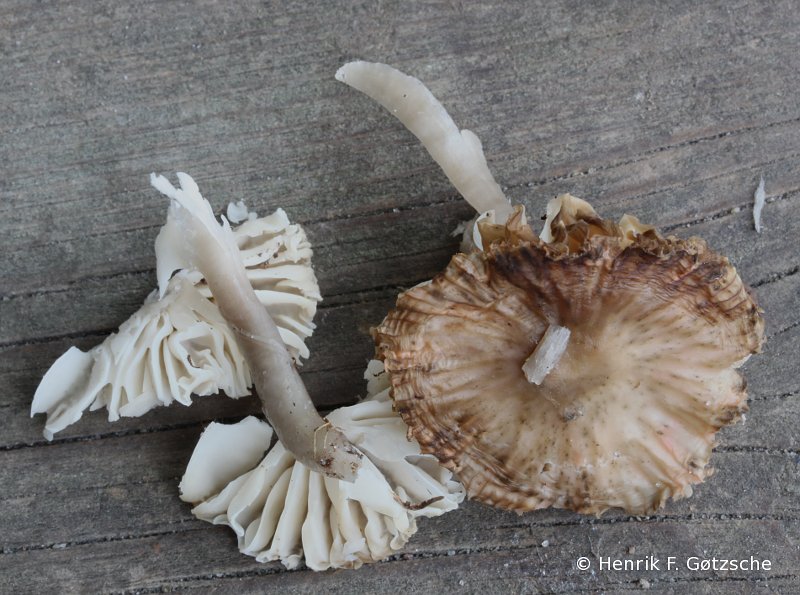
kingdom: Fungi
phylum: Basidiomycota
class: Agaricomycetes
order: Agaricales
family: Hygrophoraceae
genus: Gliophorus
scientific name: Gliophorus irrigatus
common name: slimet vokshat
